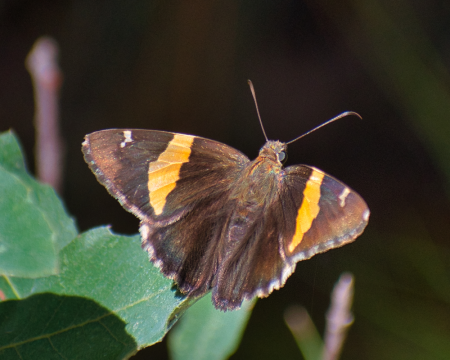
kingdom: Animalia
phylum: Arthropoda
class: Insecta
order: Lepidoptera
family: Hesperiidae
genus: Autochton
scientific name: Autochton cellus
